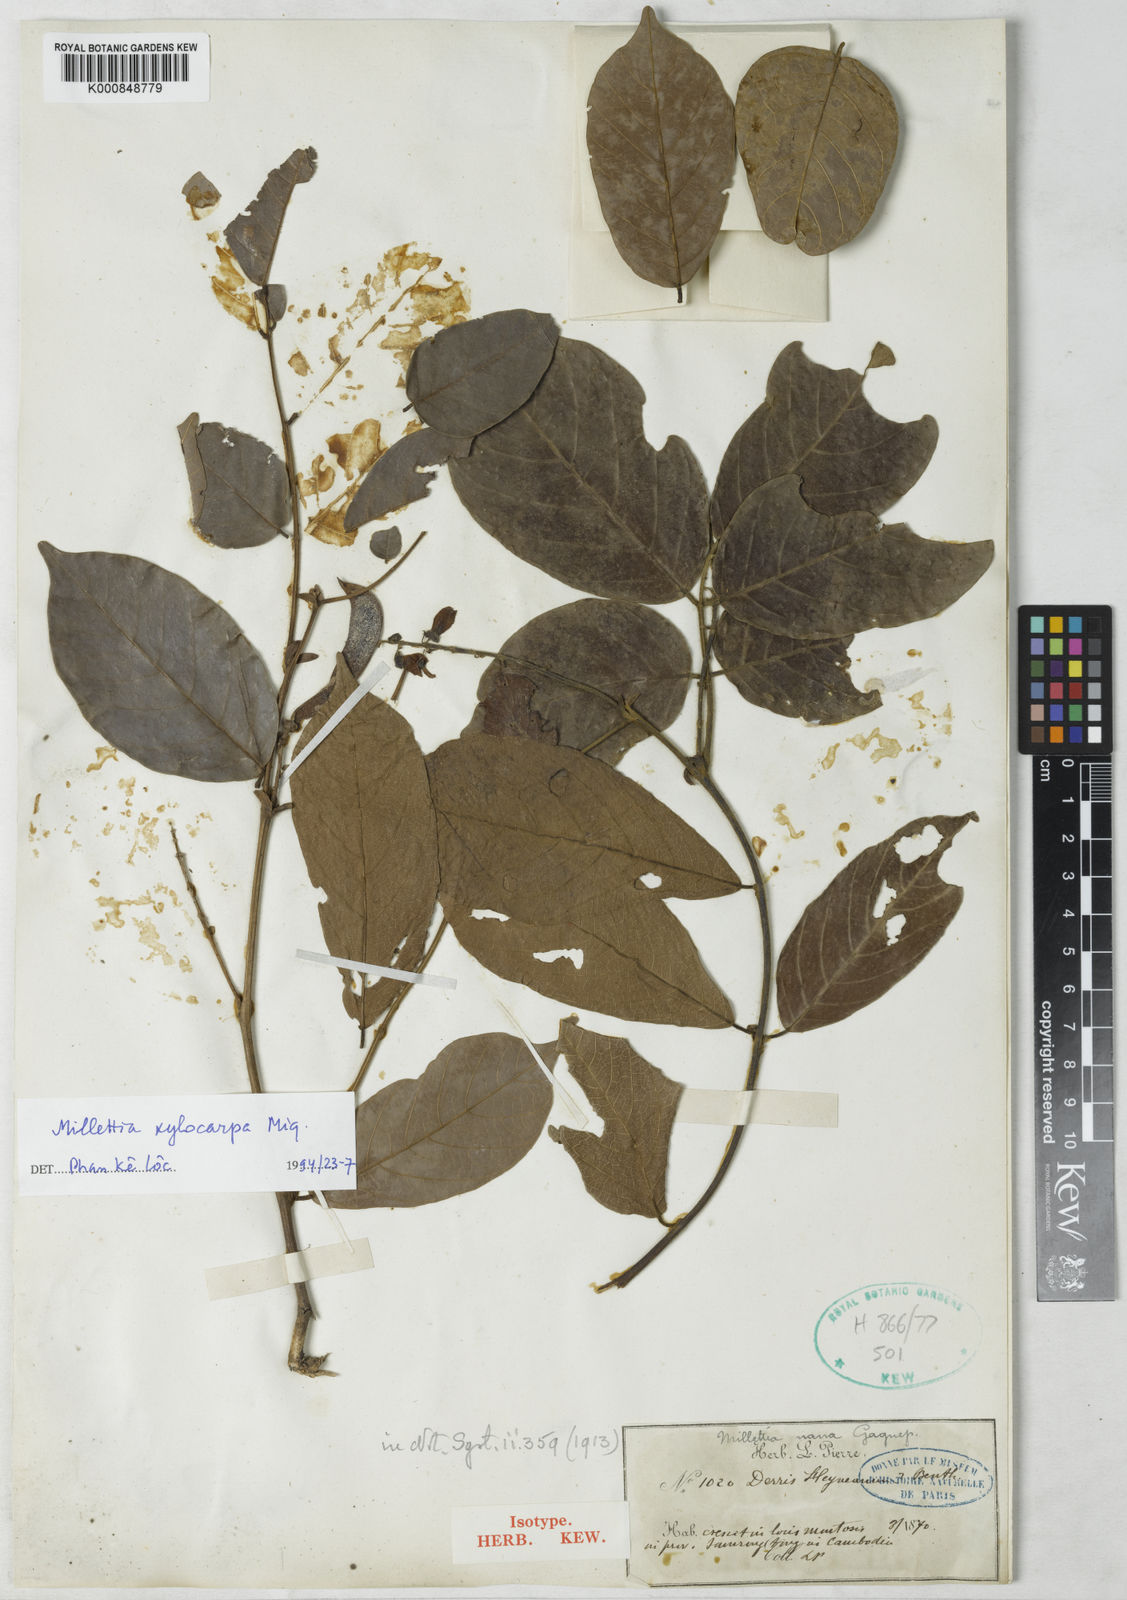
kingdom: Plantae
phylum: Tracheophyta
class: Magnoliopsida
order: Fabales
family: Fabaceae
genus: Millettia
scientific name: Millettia xylocarpa
